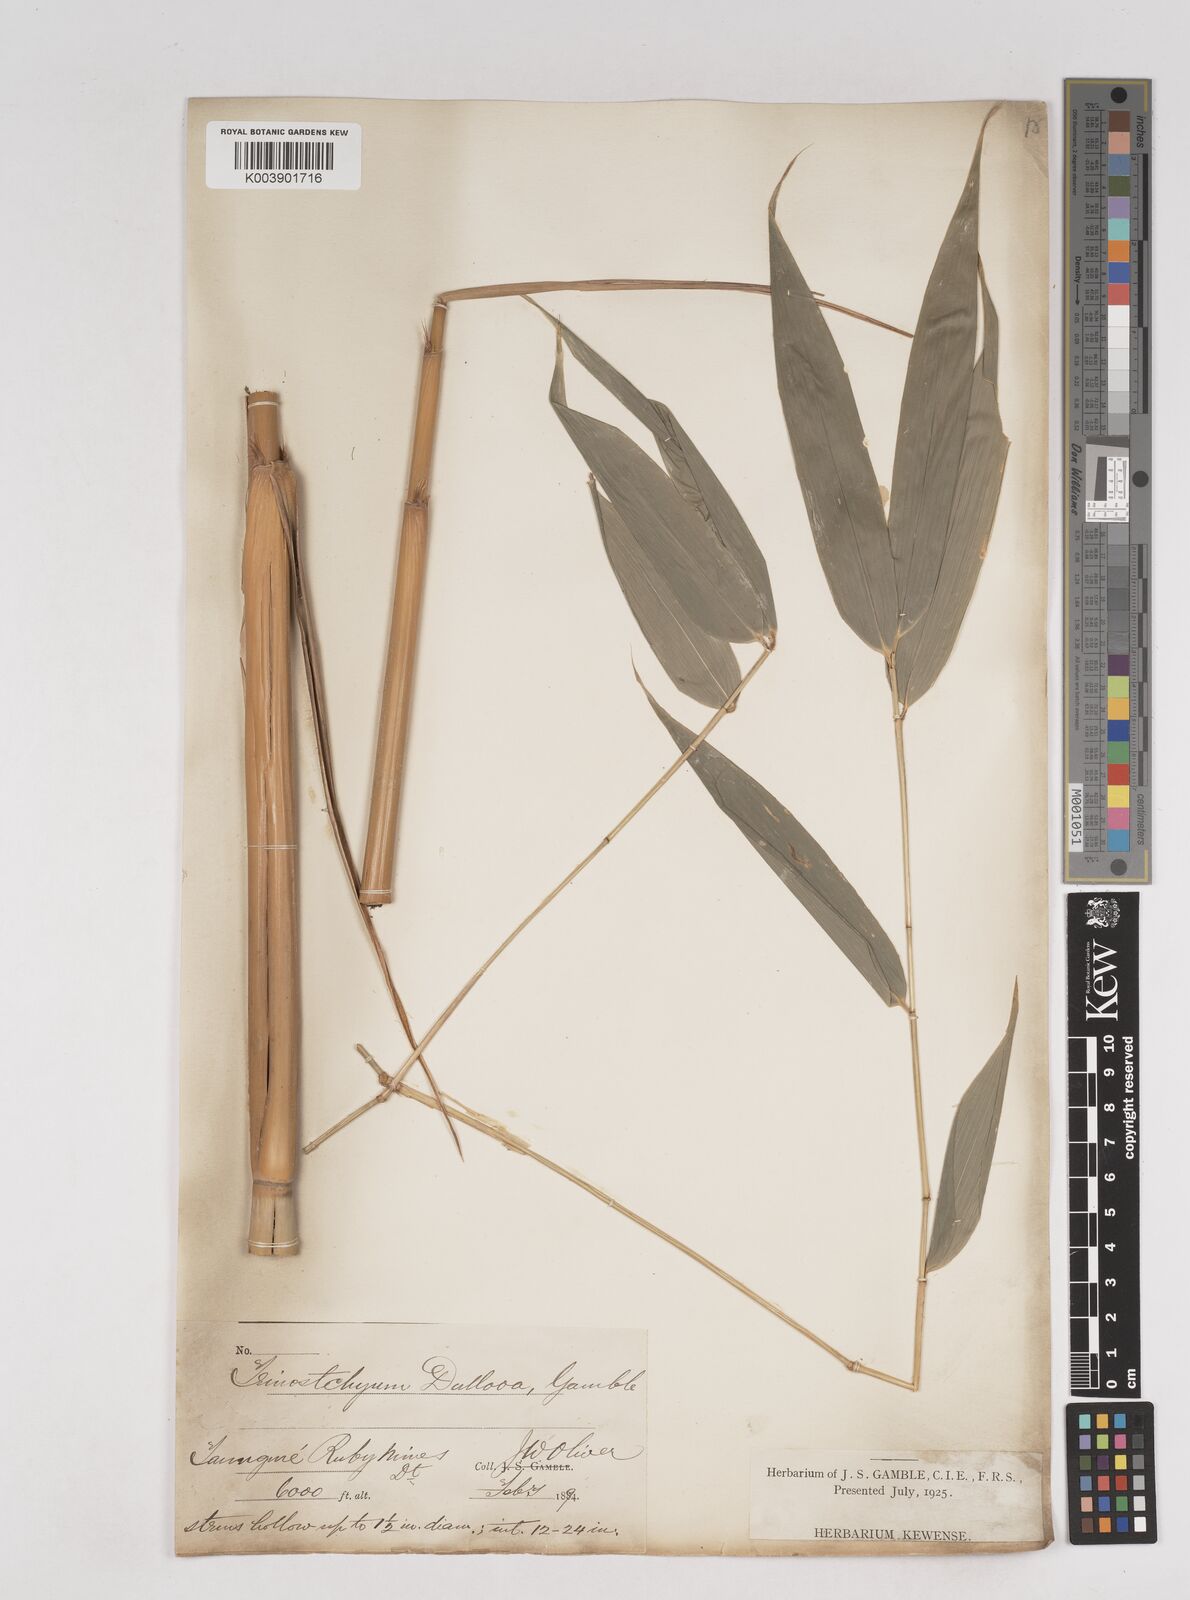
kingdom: Plantae
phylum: Tracheophyta
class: Liliopsida
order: Poales
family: Poaceae
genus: Schizostachyum
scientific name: Schizostachyum dullooa
